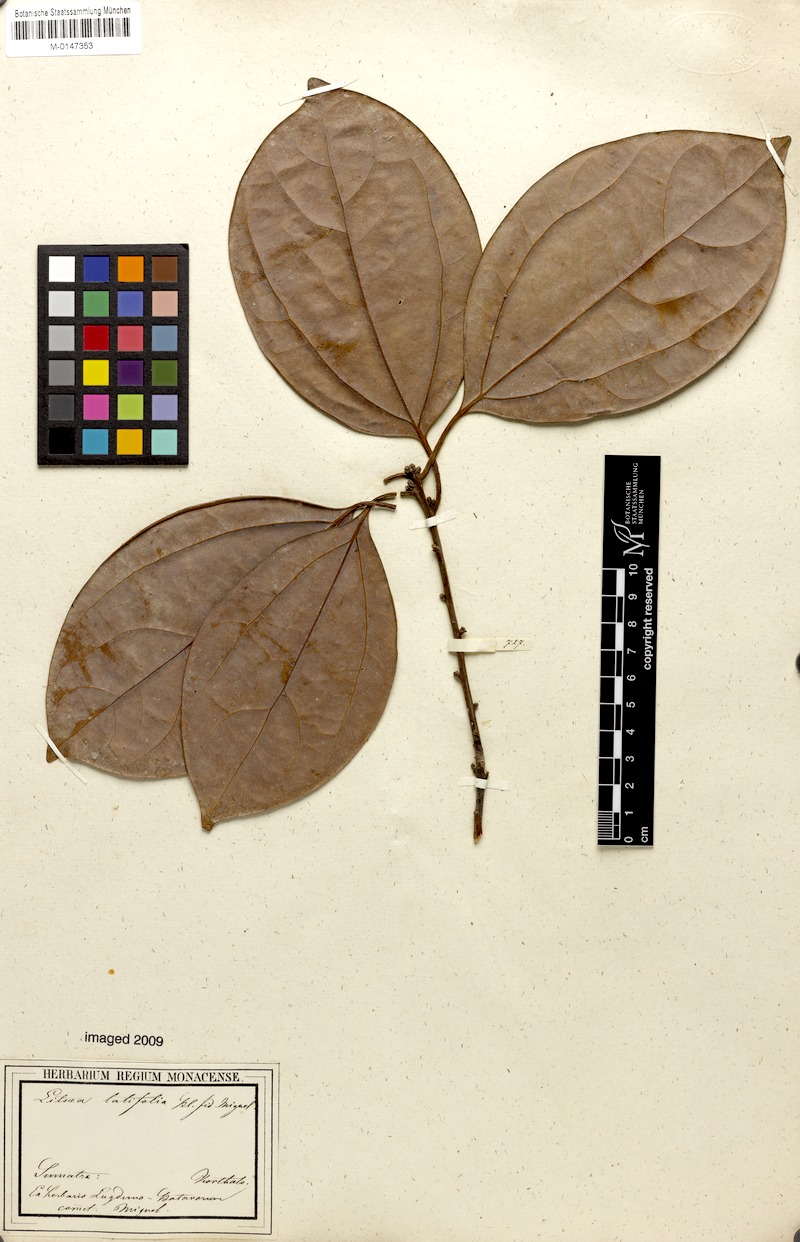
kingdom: Plantae
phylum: Tracheophyta
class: Magnoliopsida
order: Laurales
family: Lauraceae
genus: Lindera
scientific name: Lindera lucida
